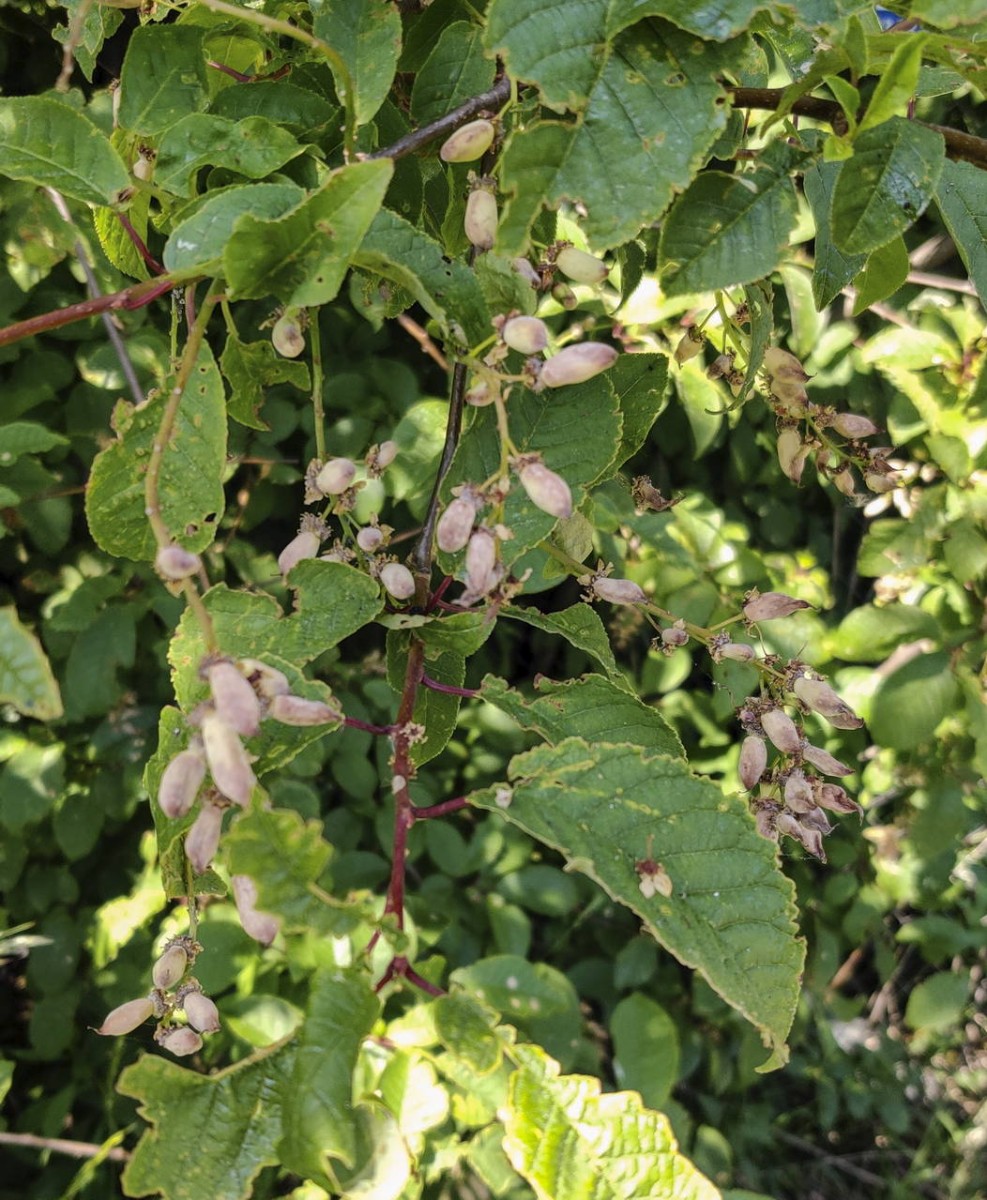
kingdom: Fungi
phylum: Ascomycota
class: Taphrinomycetes
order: Taphrinales
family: Taphrinaceae
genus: Taphrina
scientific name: Taphrina padi
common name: Bird cherry pocket
